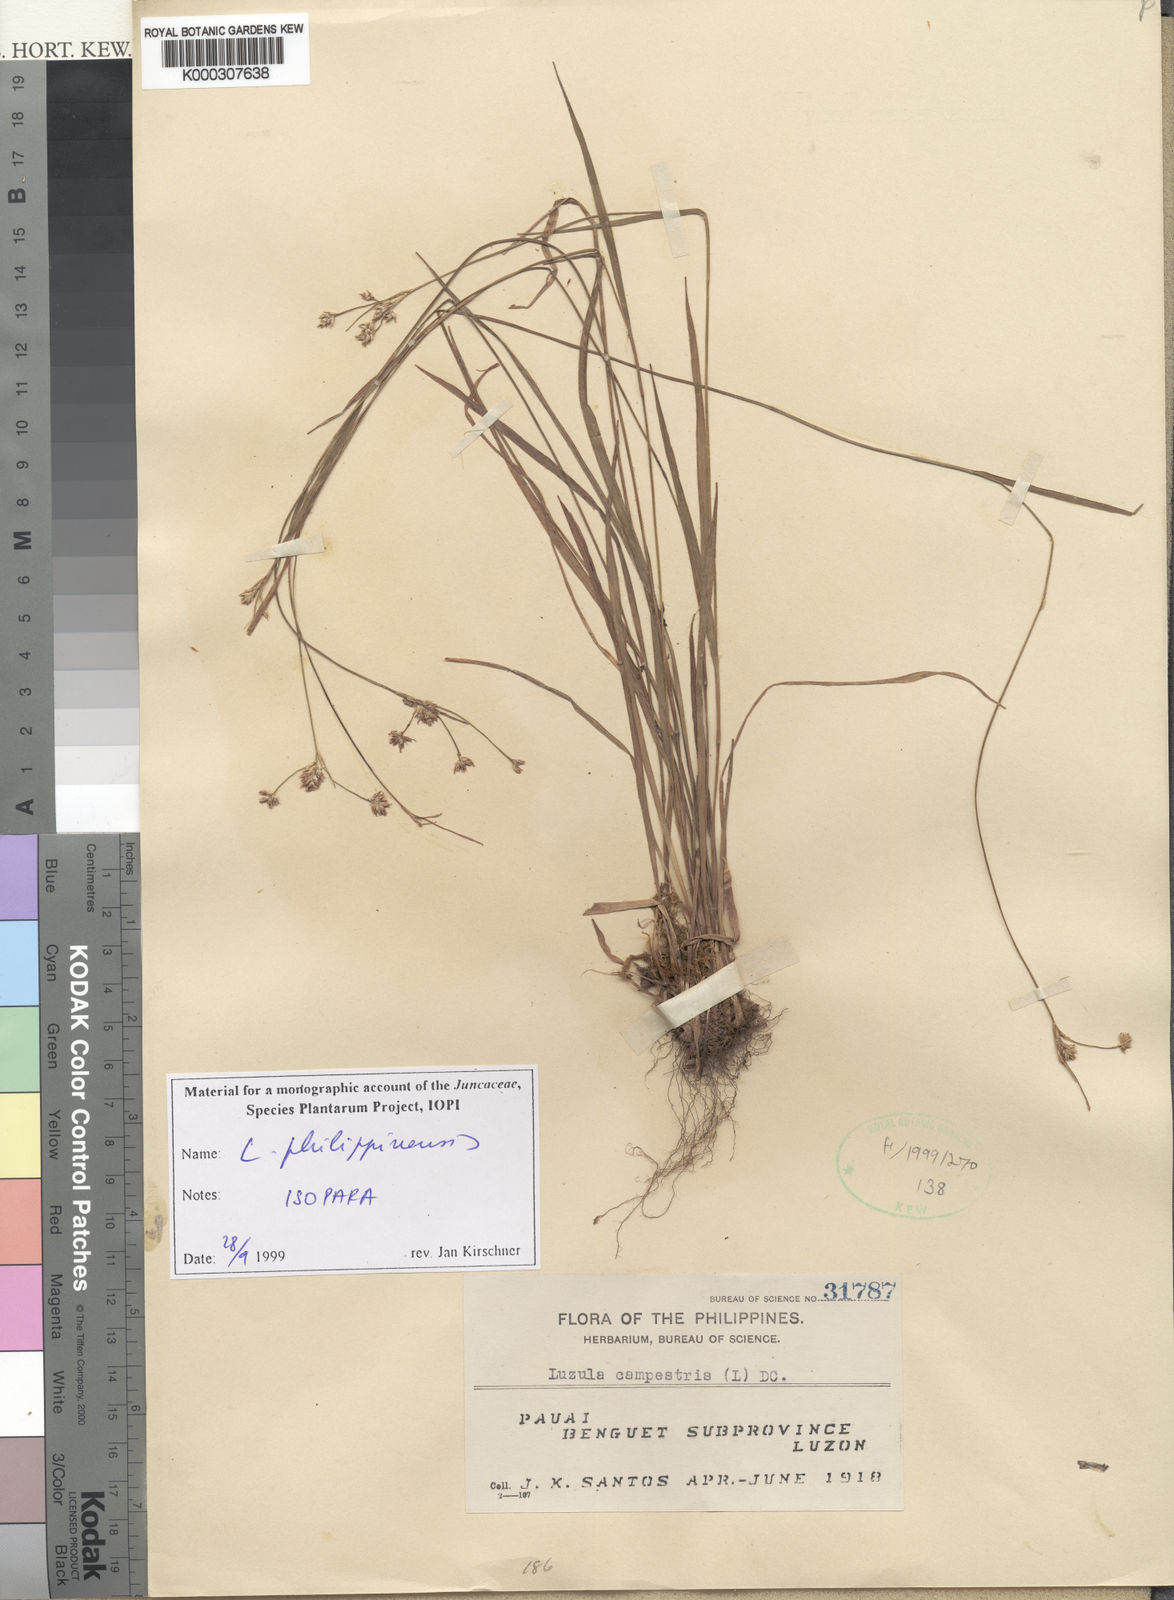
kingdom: Plantae
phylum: Tracheophyta
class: Liliopsida
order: Poales
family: Juncaceae
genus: Luzula
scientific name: Luzula philippinensis
